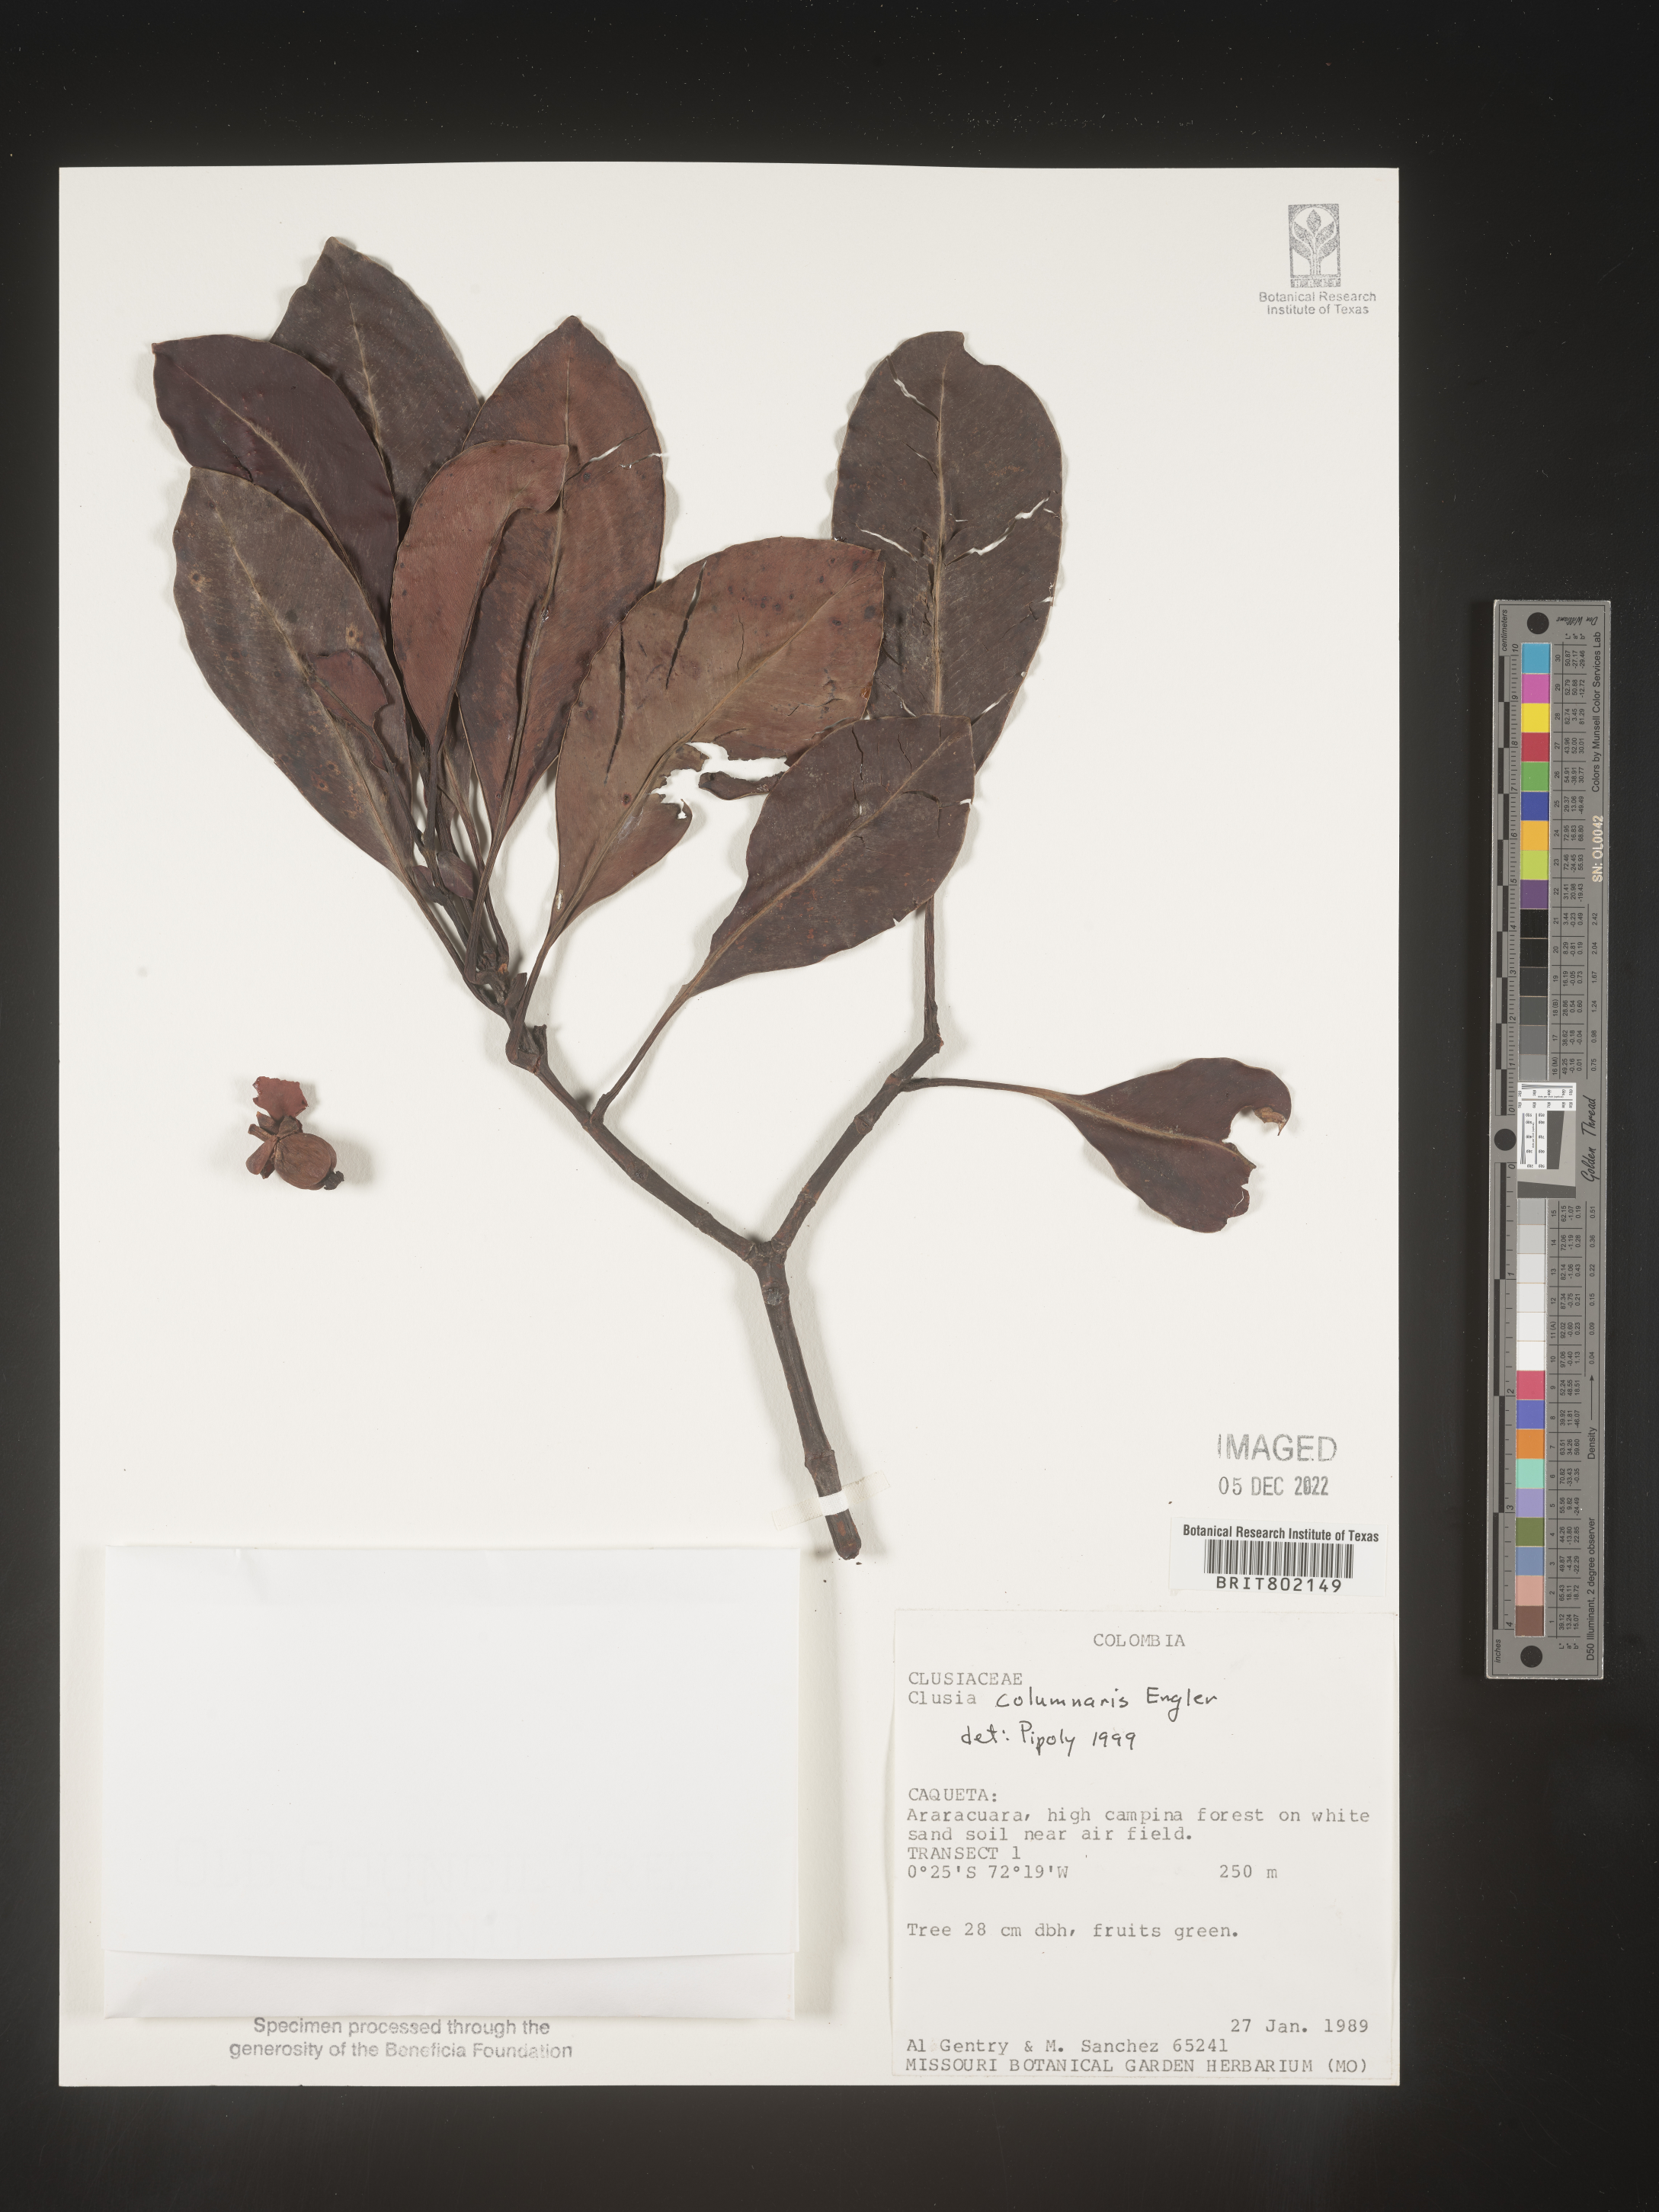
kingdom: Plantae
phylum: Tracheophyta
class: Magnoliopsida
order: Malpighiales
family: Clusiaceae
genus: Clusia
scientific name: Clusia columnaris
